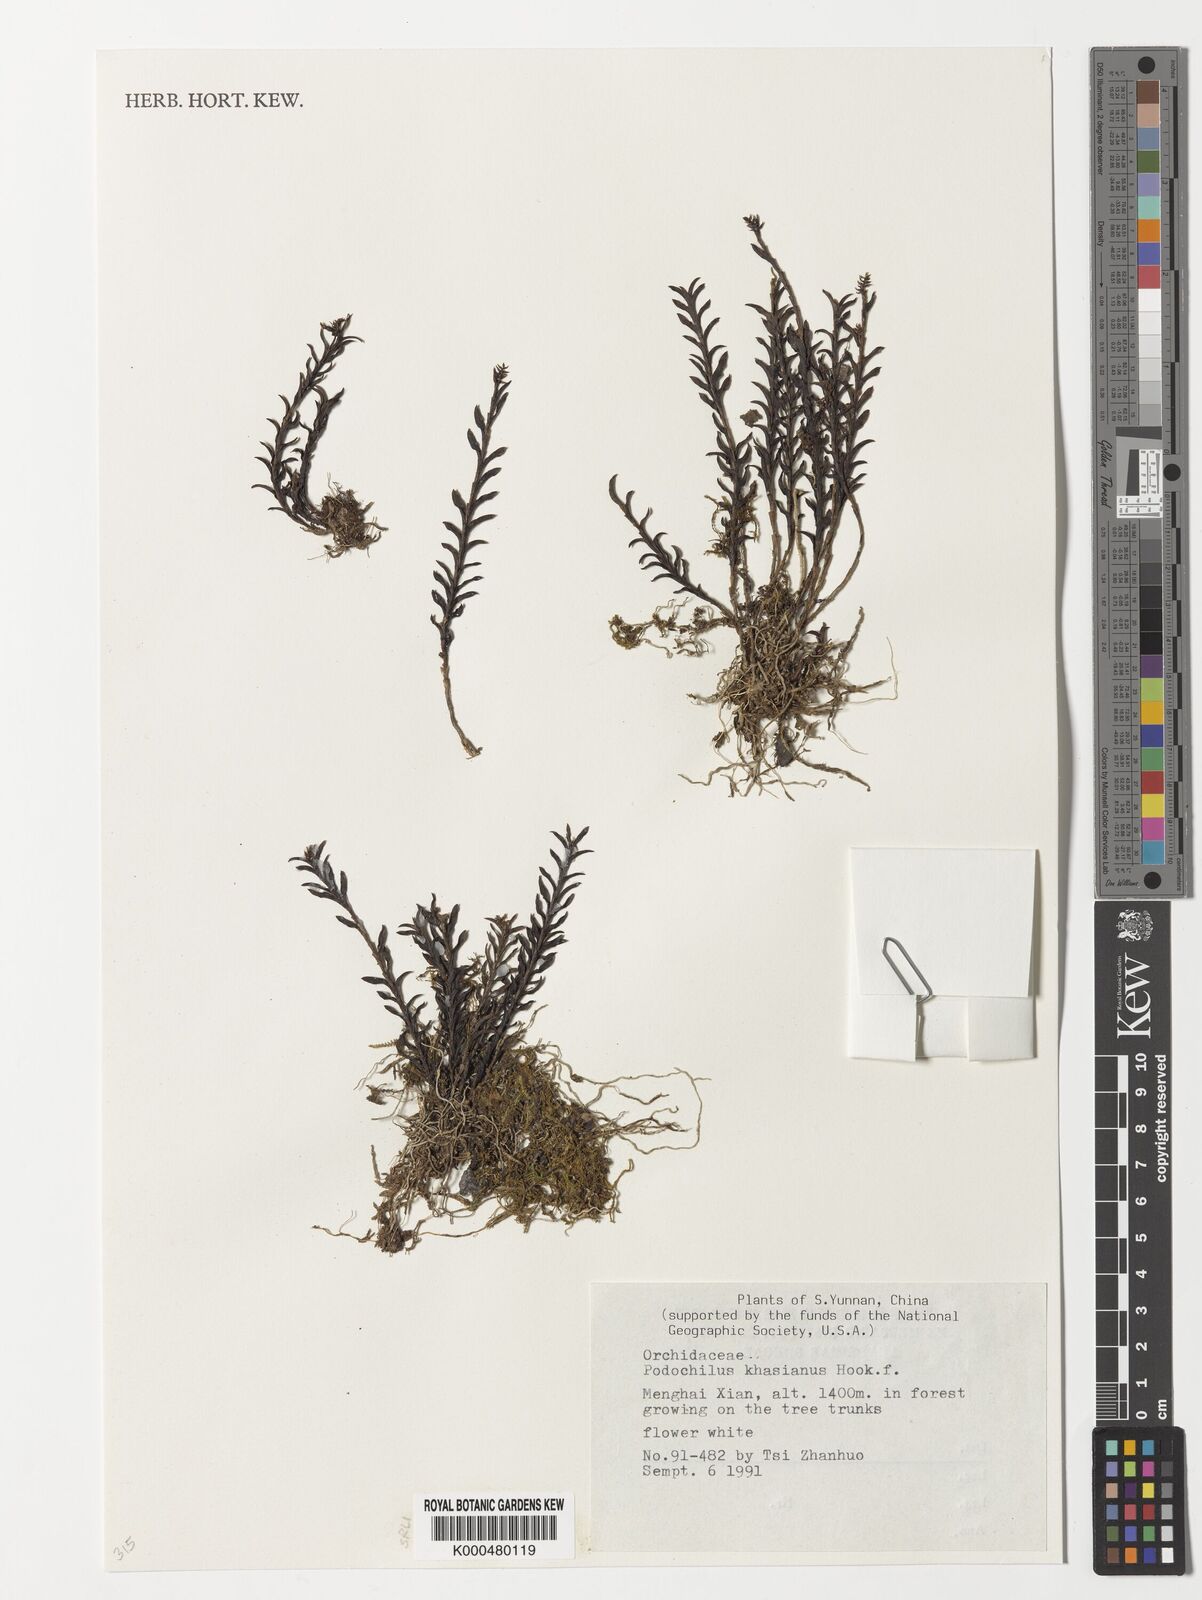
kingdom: Plantae
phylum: Tracheophyta
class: Liliopsida
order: Asparagales
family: Orchidaceae
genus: Podochilus
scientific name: Podochilus khasianus
